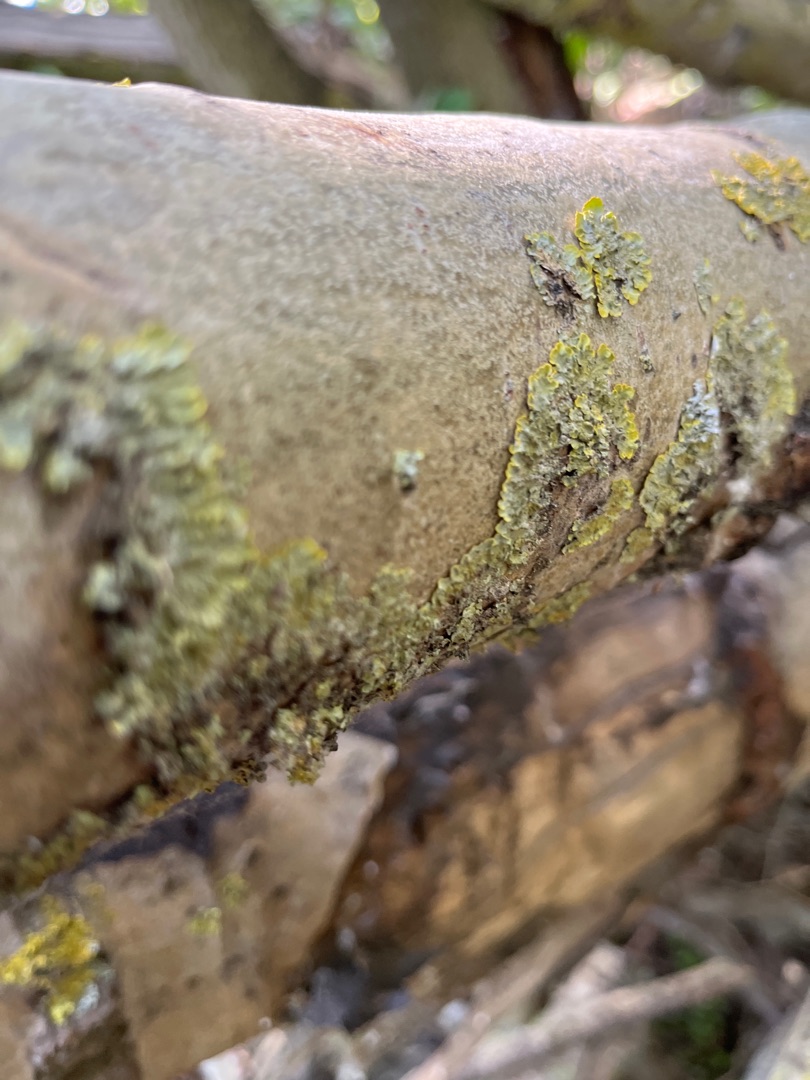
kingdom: Fungi
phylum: Ascomycota
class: Lecanoromycetes
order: Teloschistales
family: Teloschistaceae
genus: Xanthoria
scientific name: Xanthoria parietina
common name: Almindelig væggelav
